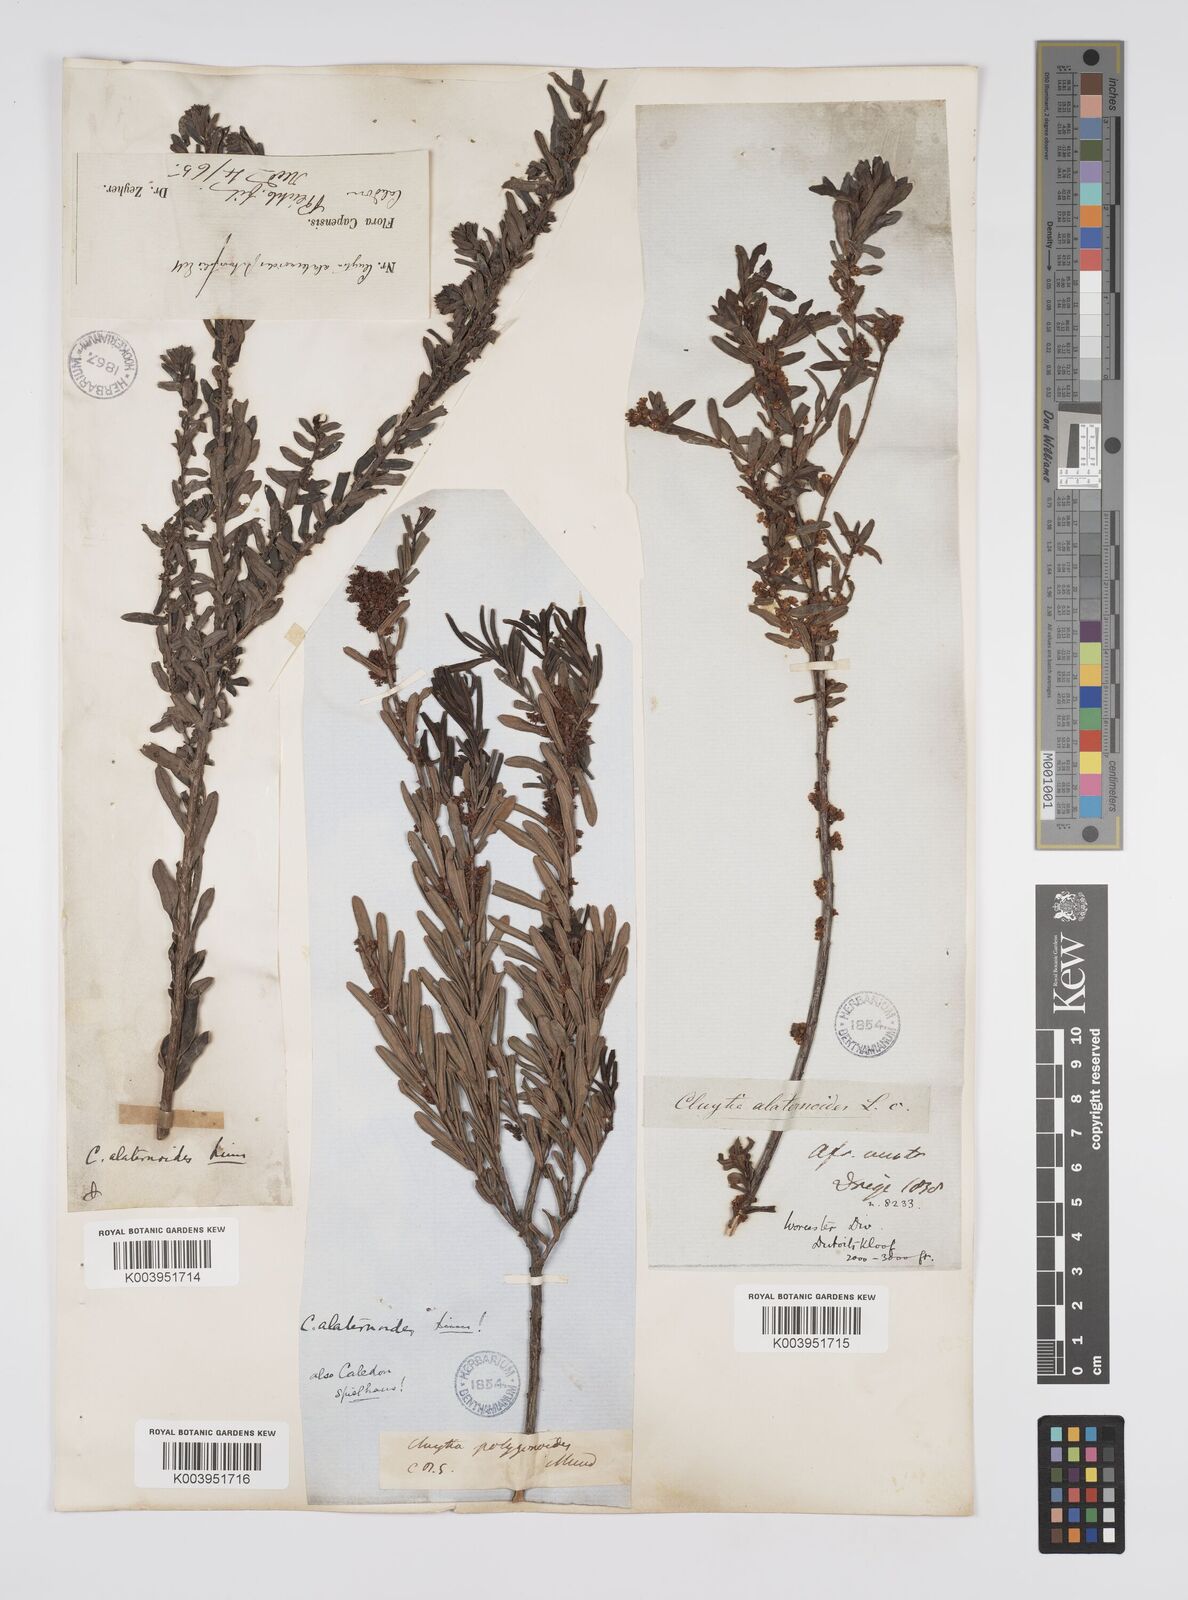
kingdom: Plantae
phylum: Tracheophyta
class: Magnoliopsida
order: Malpighiales
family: Peraceae
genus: Clutia
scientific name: Clutia alaternoides
